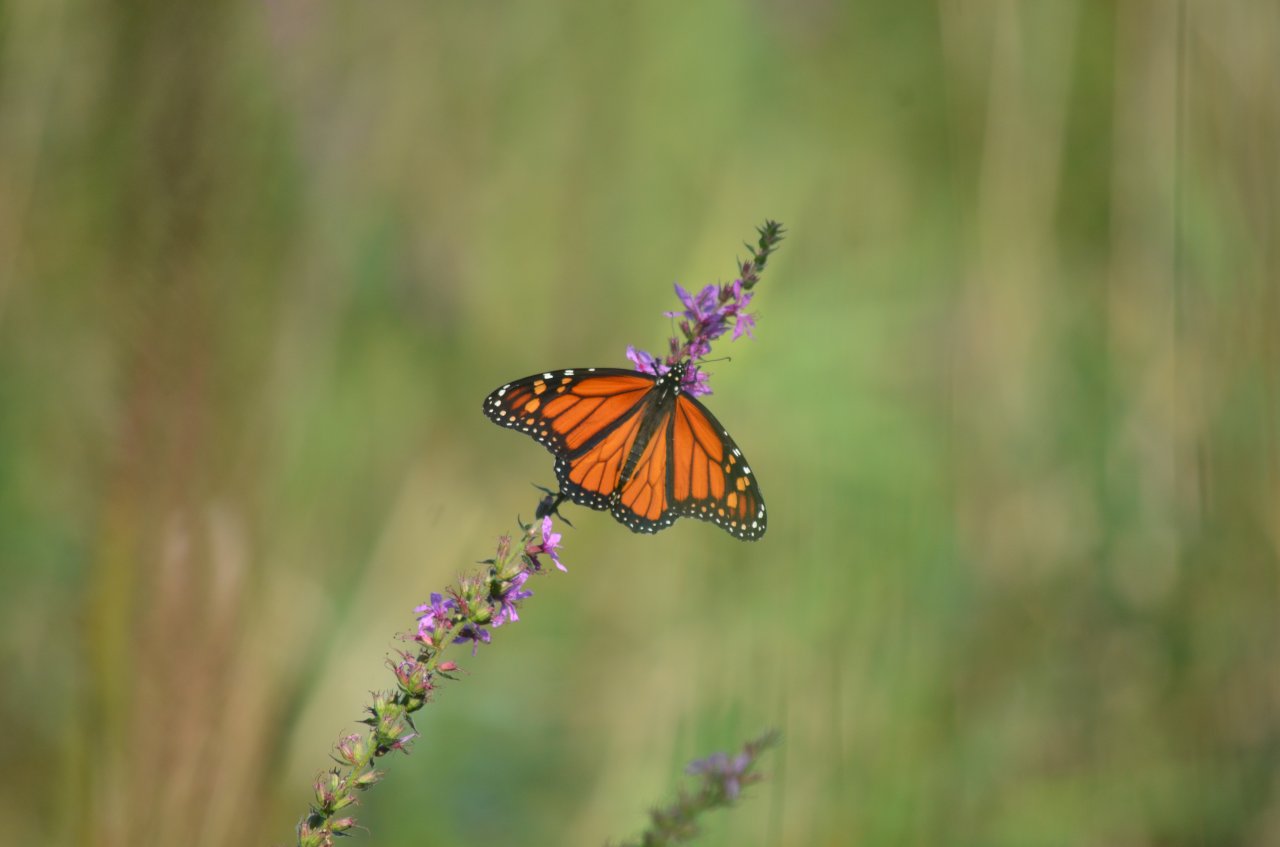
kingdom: Animalia
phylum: Arthropoda
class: Insecta
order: Lepidoptera
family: Nymphalidae
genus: Danaus
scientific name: Danaus plexippus
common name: Monarch
